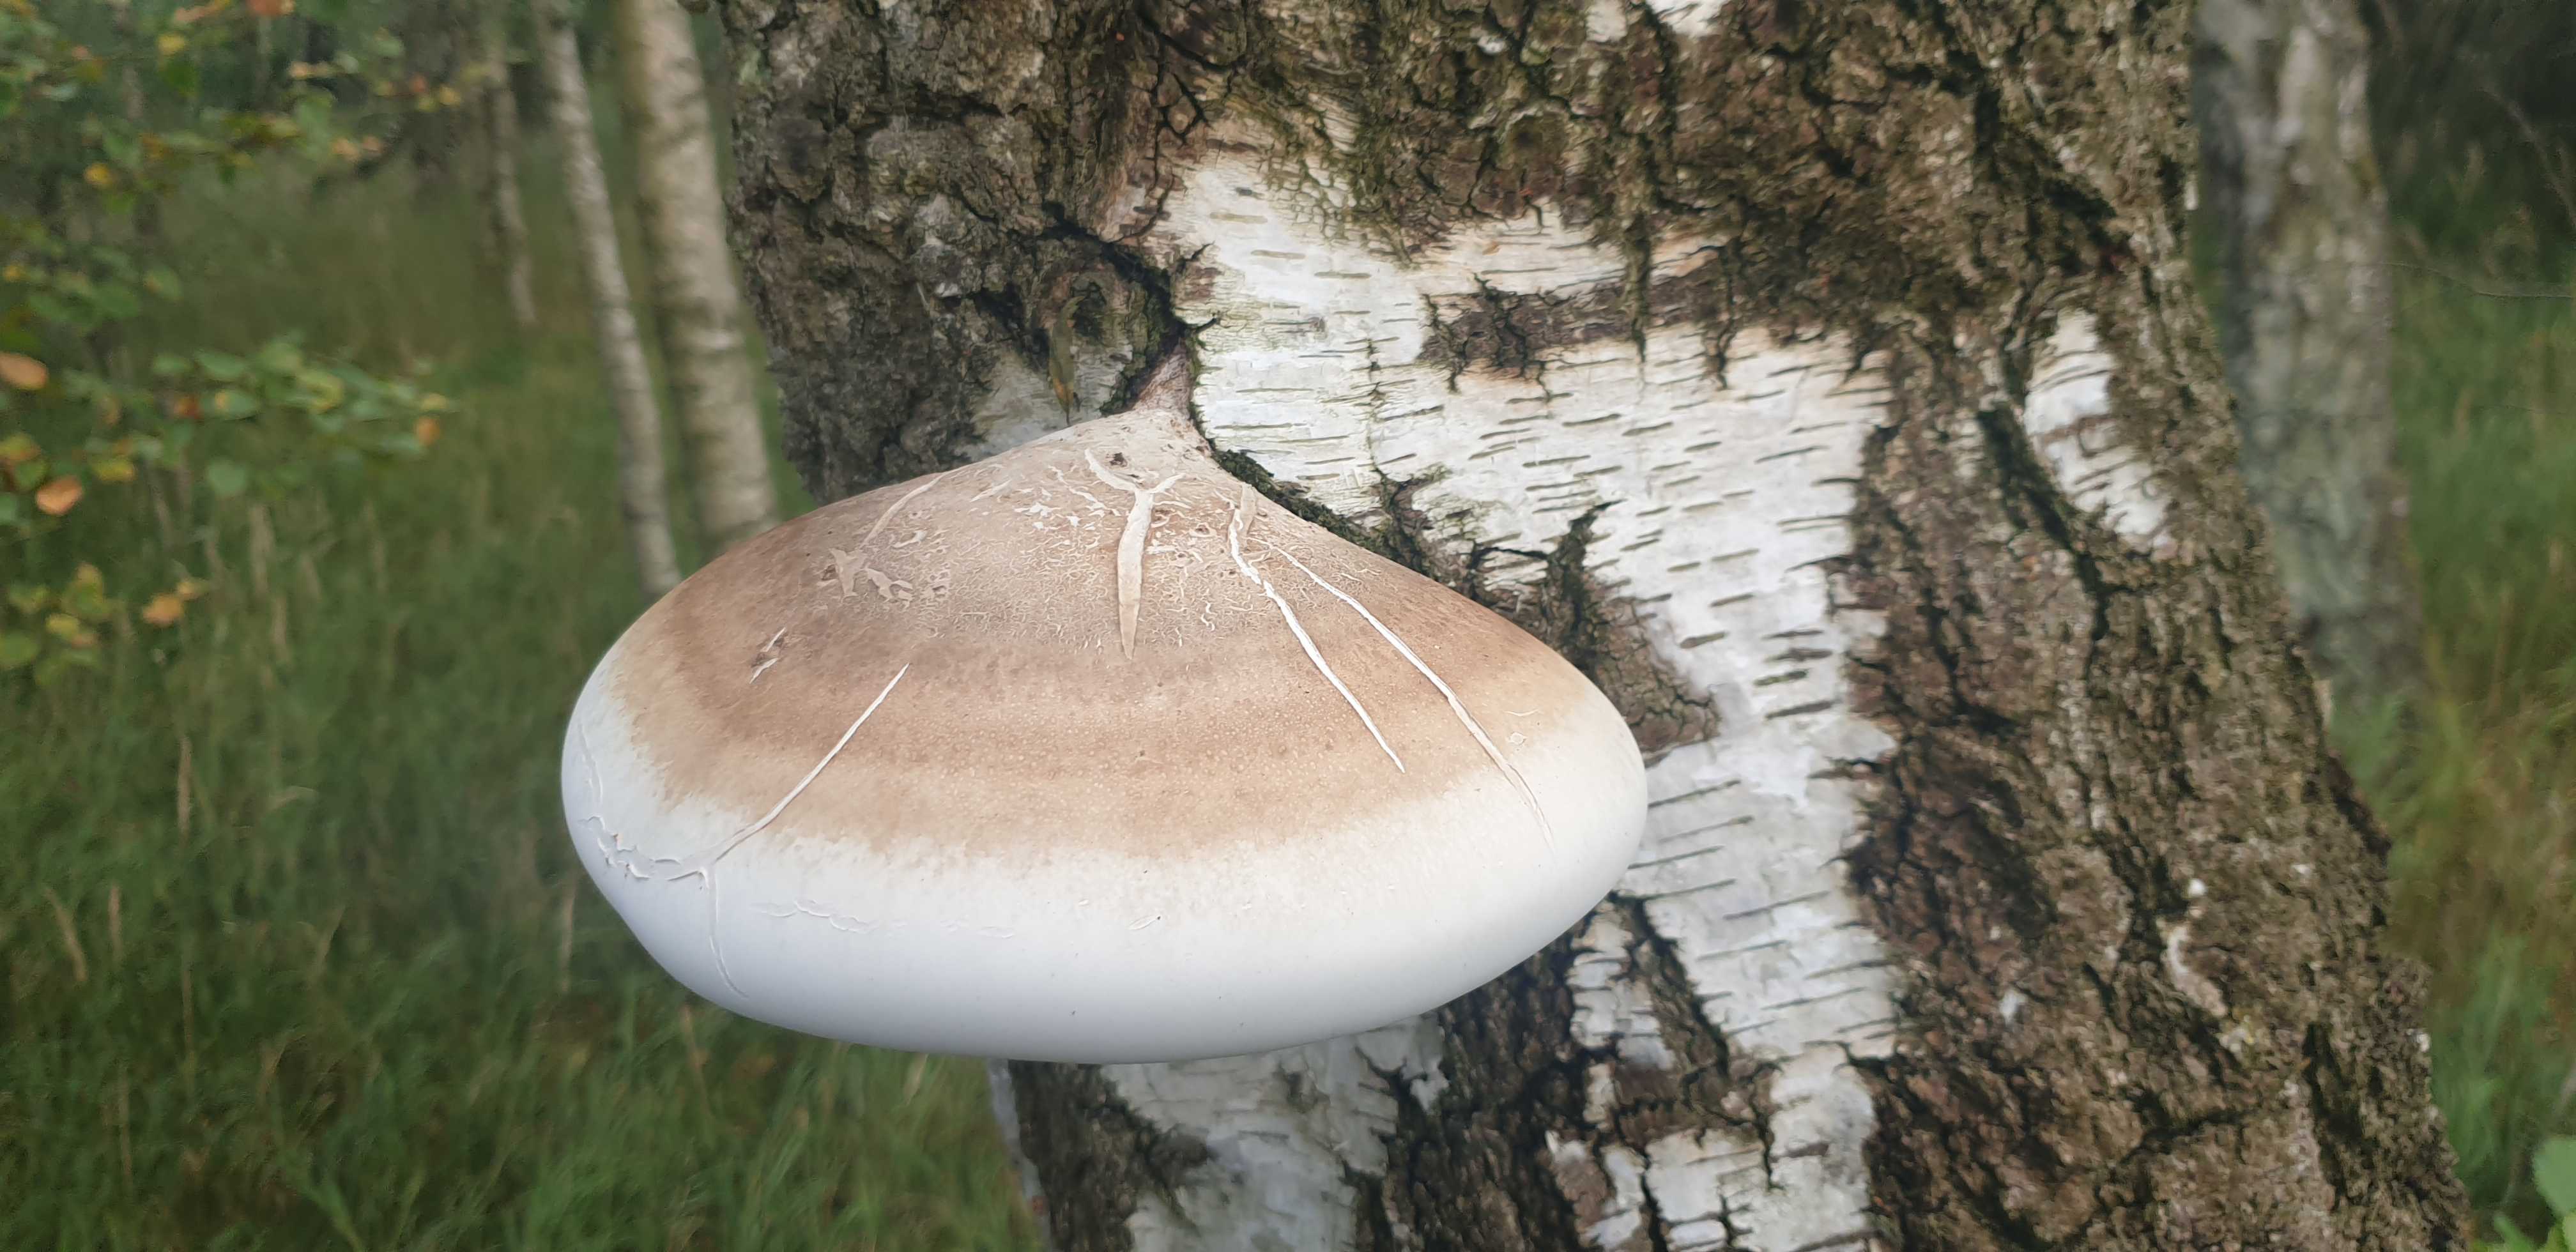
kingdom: Fungi
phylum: Basidiomycota
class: Agaricomycetes
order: Polyporales
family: Fomitopsidaceae
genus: Fomitopsis
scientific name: Fomitopsis betulina
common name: birkeporesvamp
